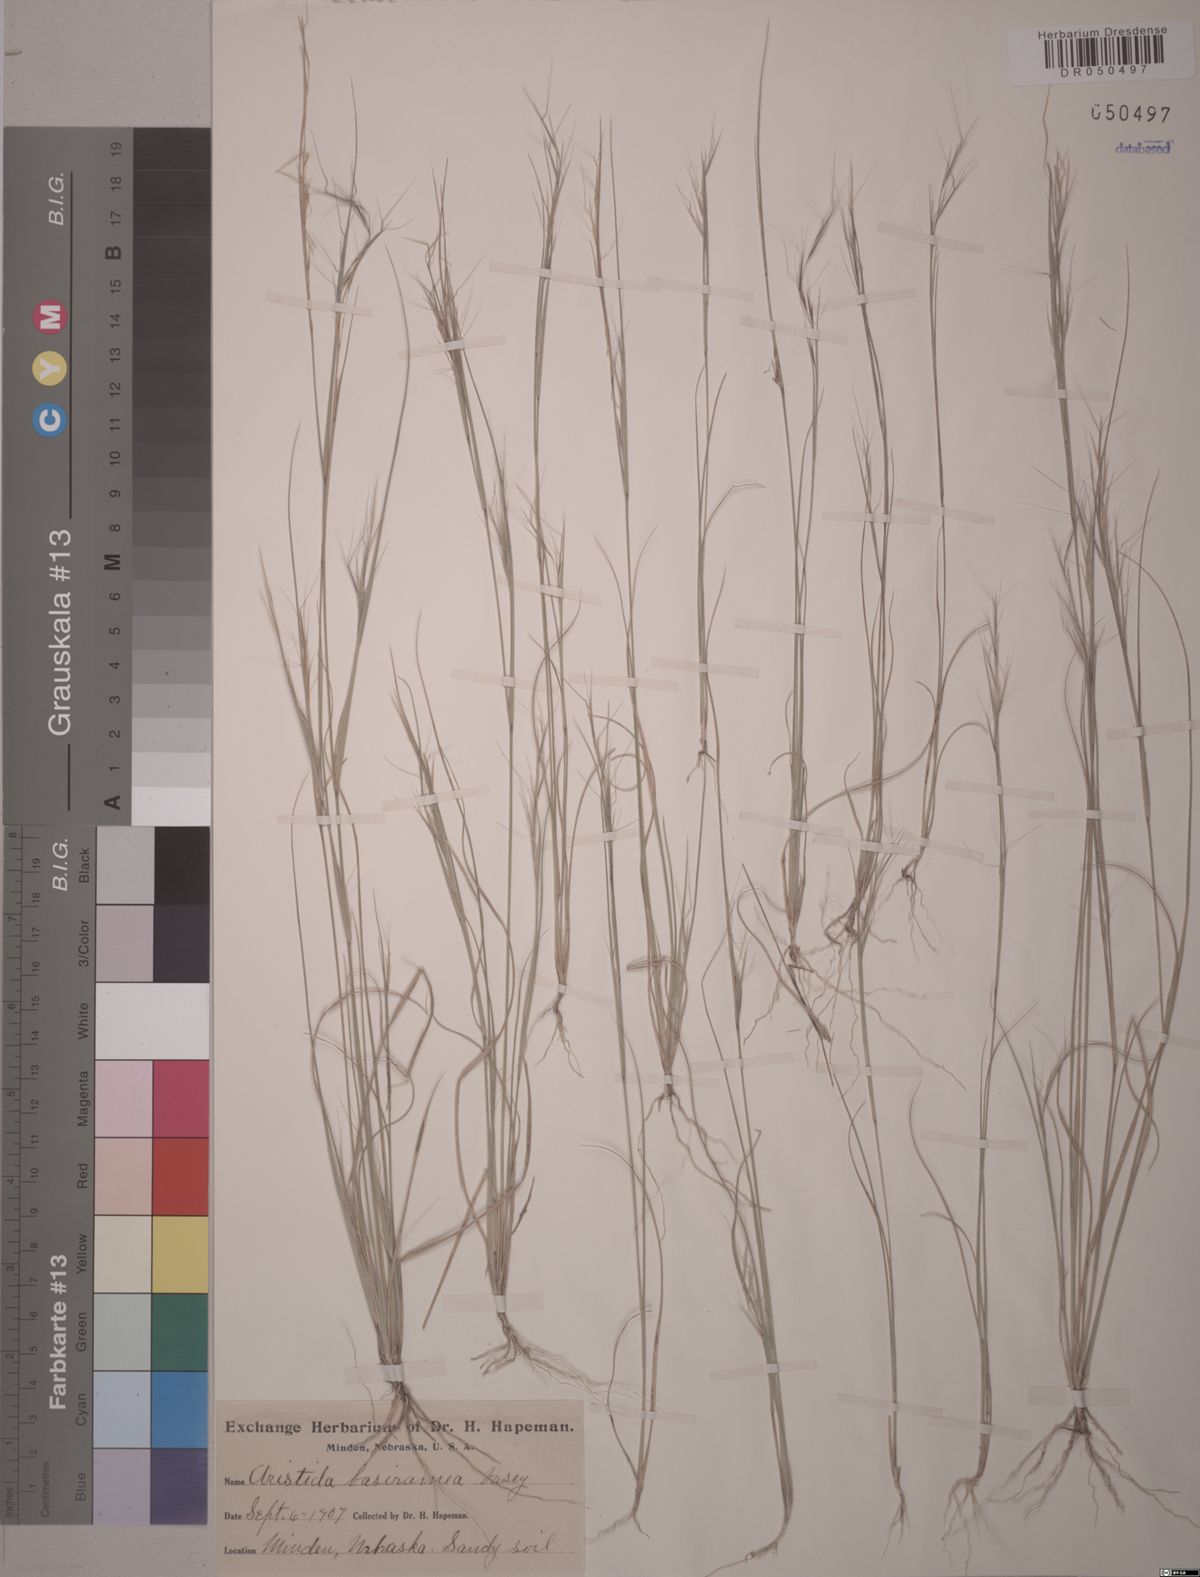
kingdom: Plantae
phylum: Tracheophyta
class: Liliopsida
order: Poales
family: Poaceae
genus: Aristida
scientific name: Aristida basiramea
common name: Forked three-awned grass
